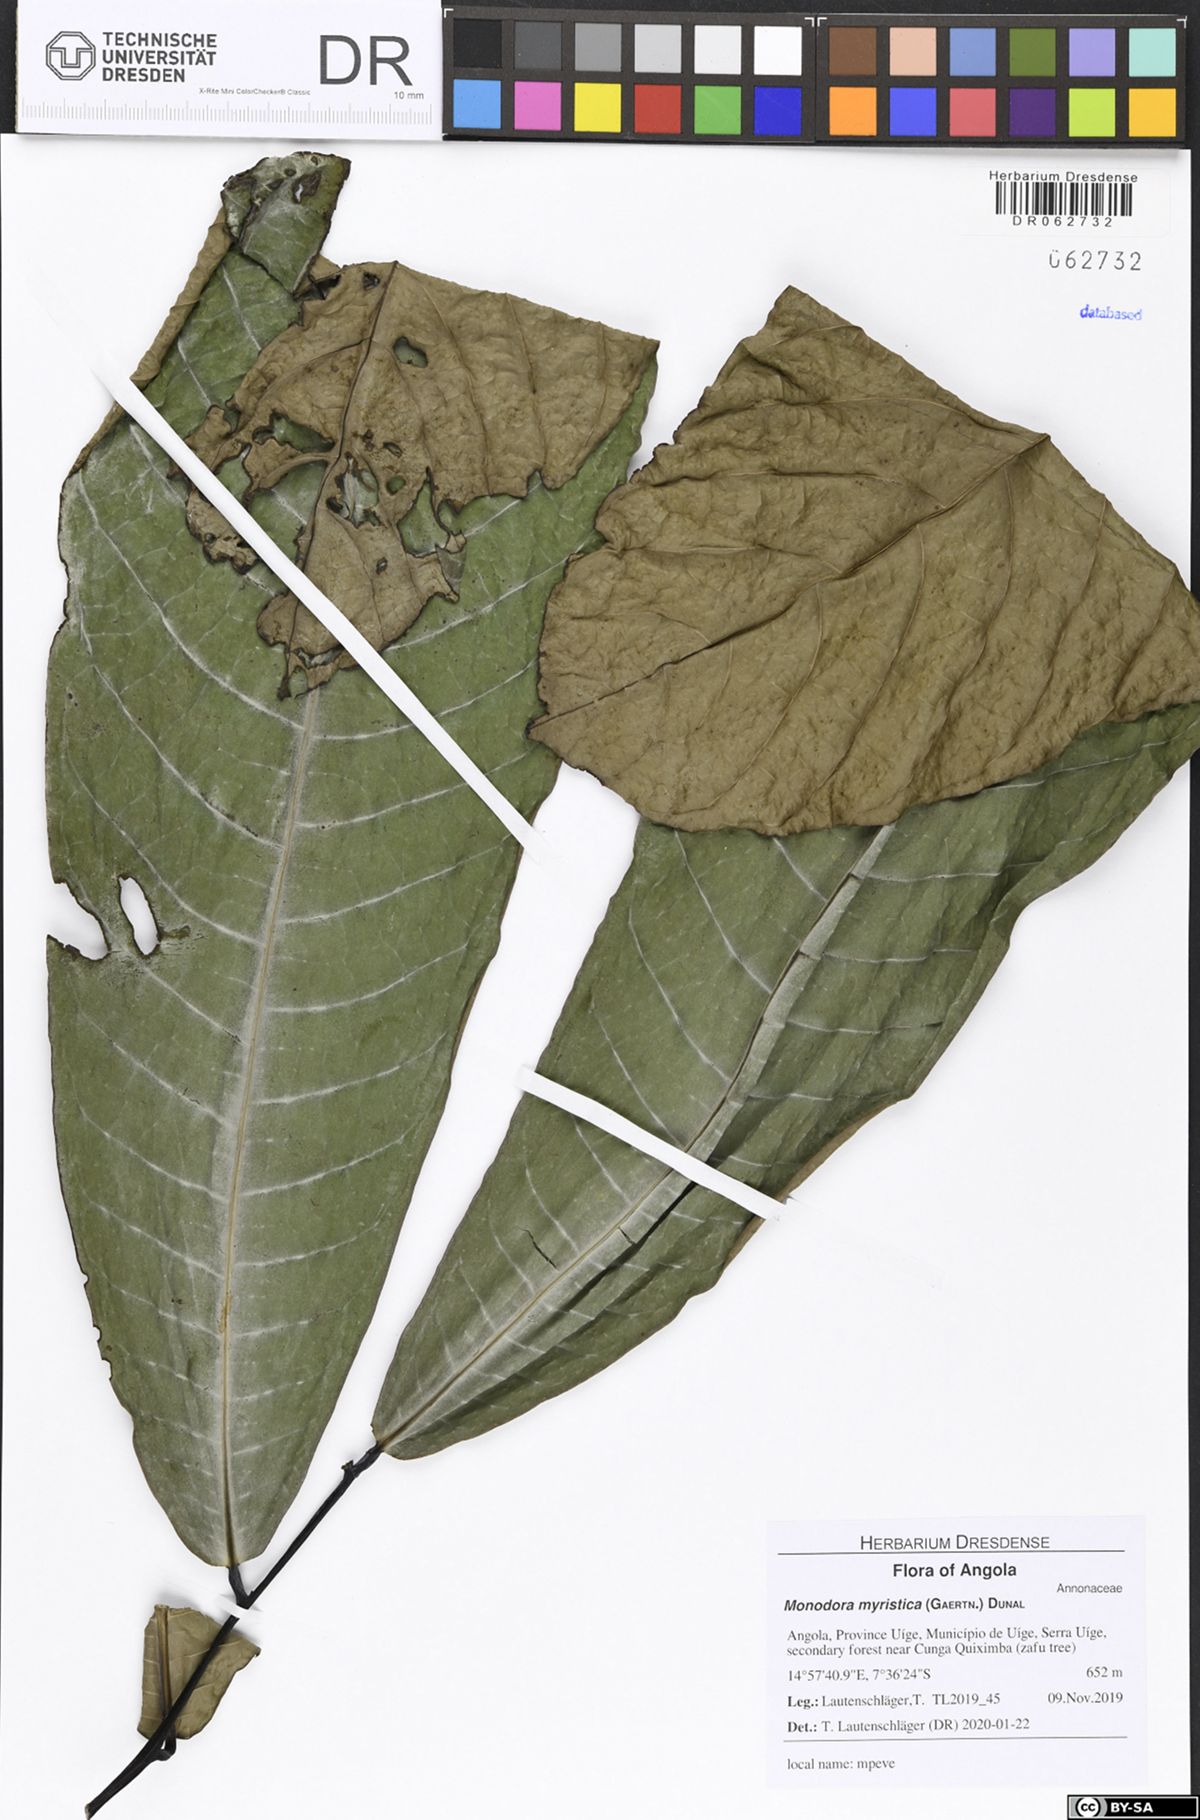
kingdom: Plantae
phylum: Tracheophyta
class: Magnoliopsida
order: Magnoliales
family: Annonaceae
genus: Anonidium
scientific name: Anonidium mannii
